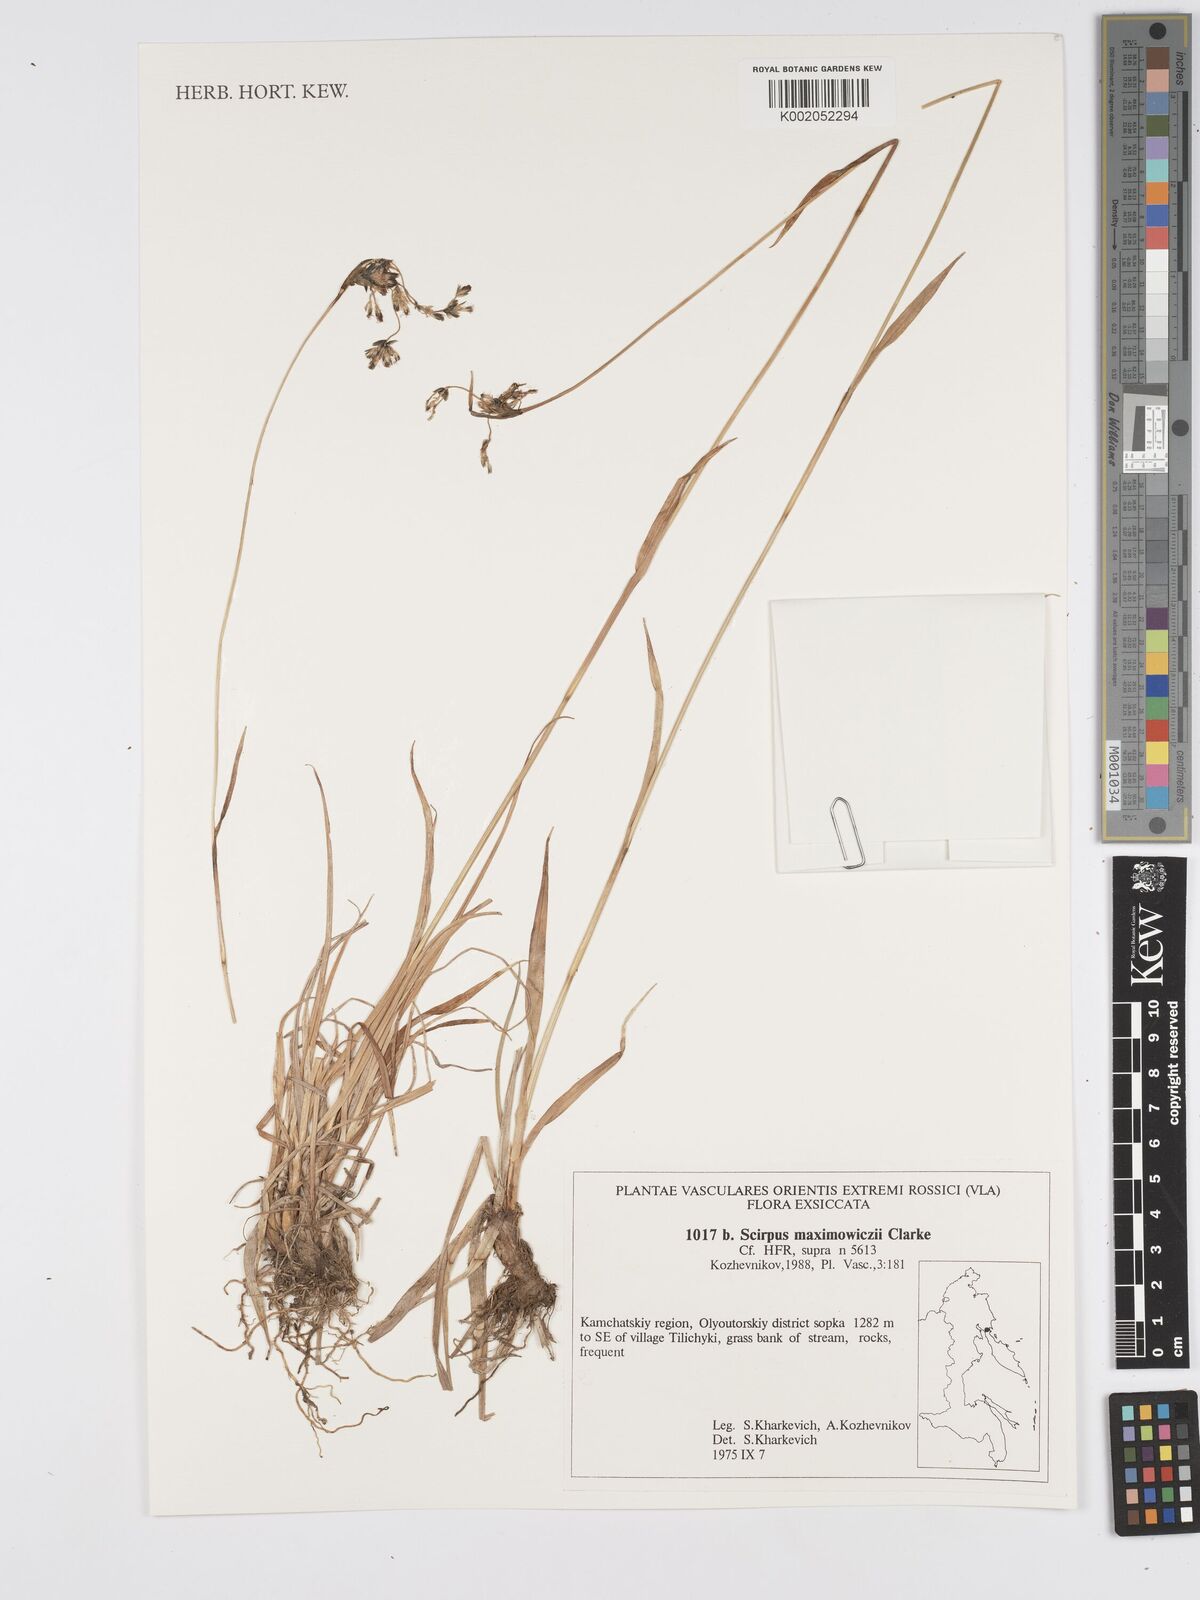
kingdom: Plantae
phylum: Tracheophyta
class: Liliopsida
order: Poales
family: Cyperaceae
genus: Scirpus
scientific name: Scirpus maximowiczii
